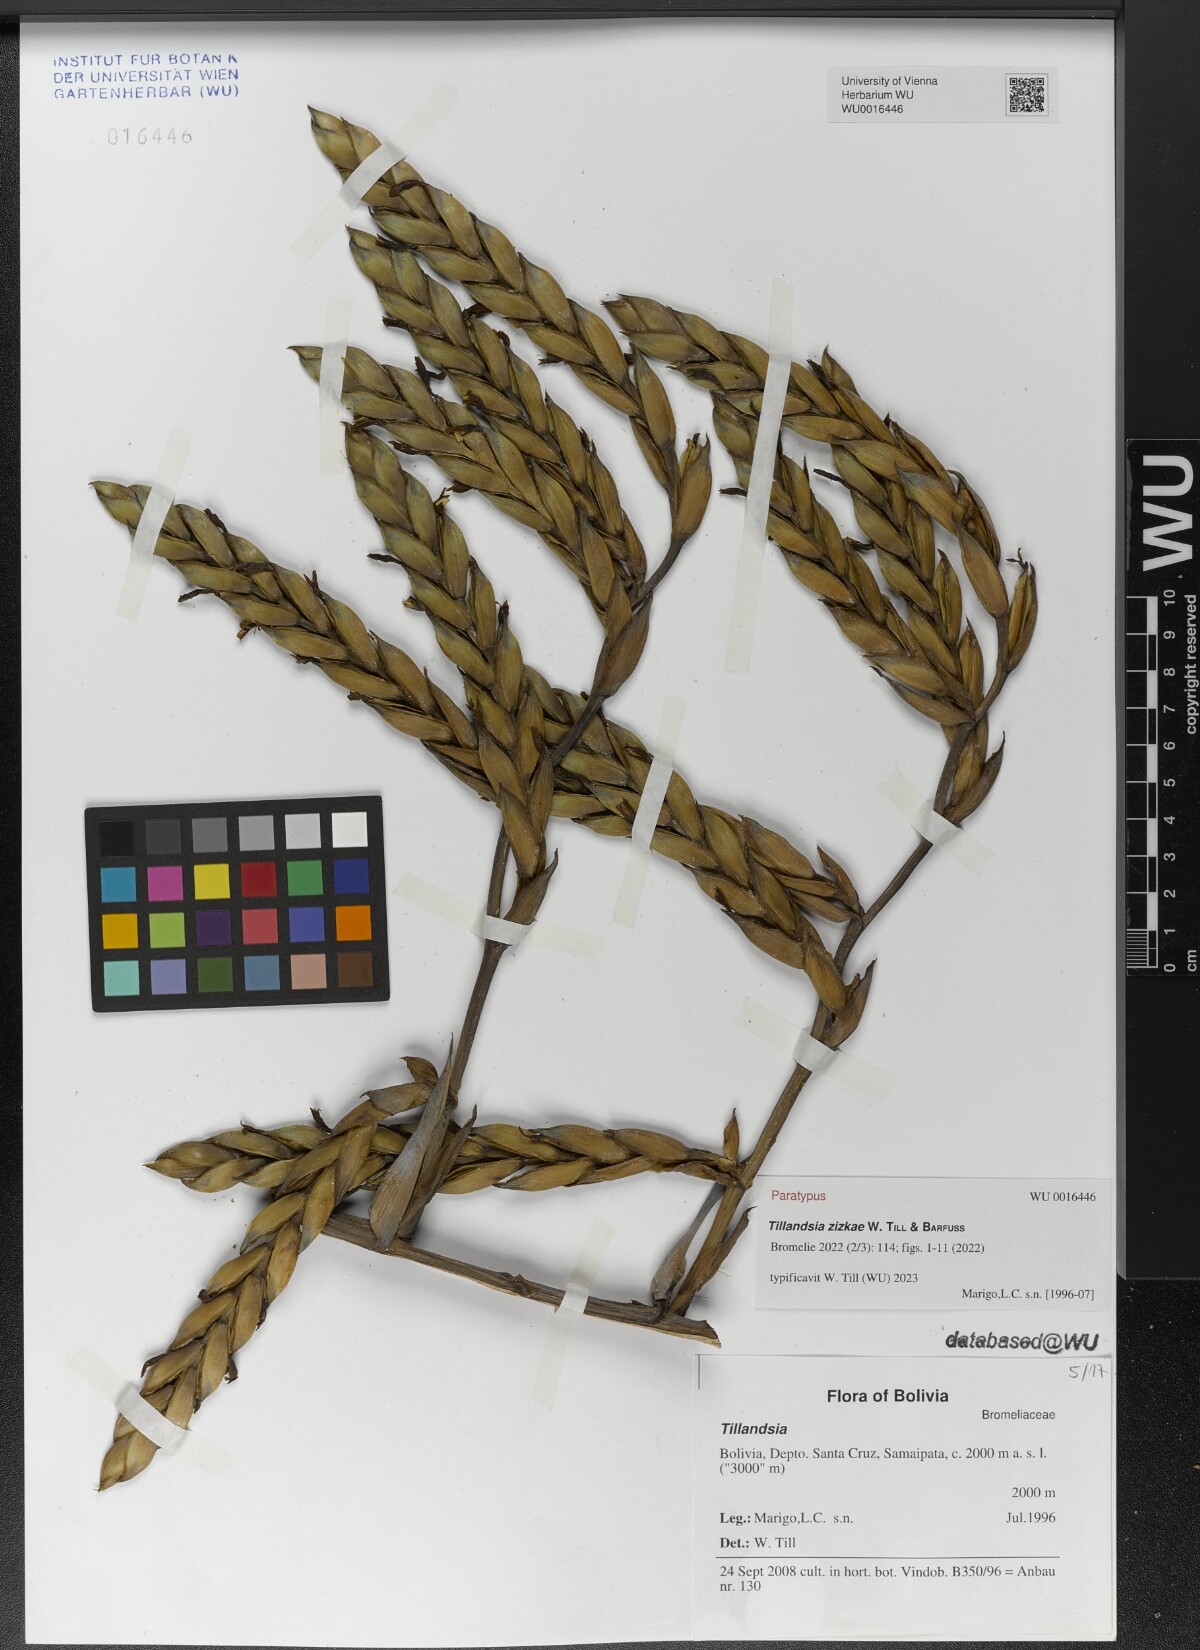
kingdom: Plantae
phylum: Tracheophyta
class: Liliopsida
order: Poales
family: Bromeliaceae
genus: Tillandsia
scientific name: Tillandsia
